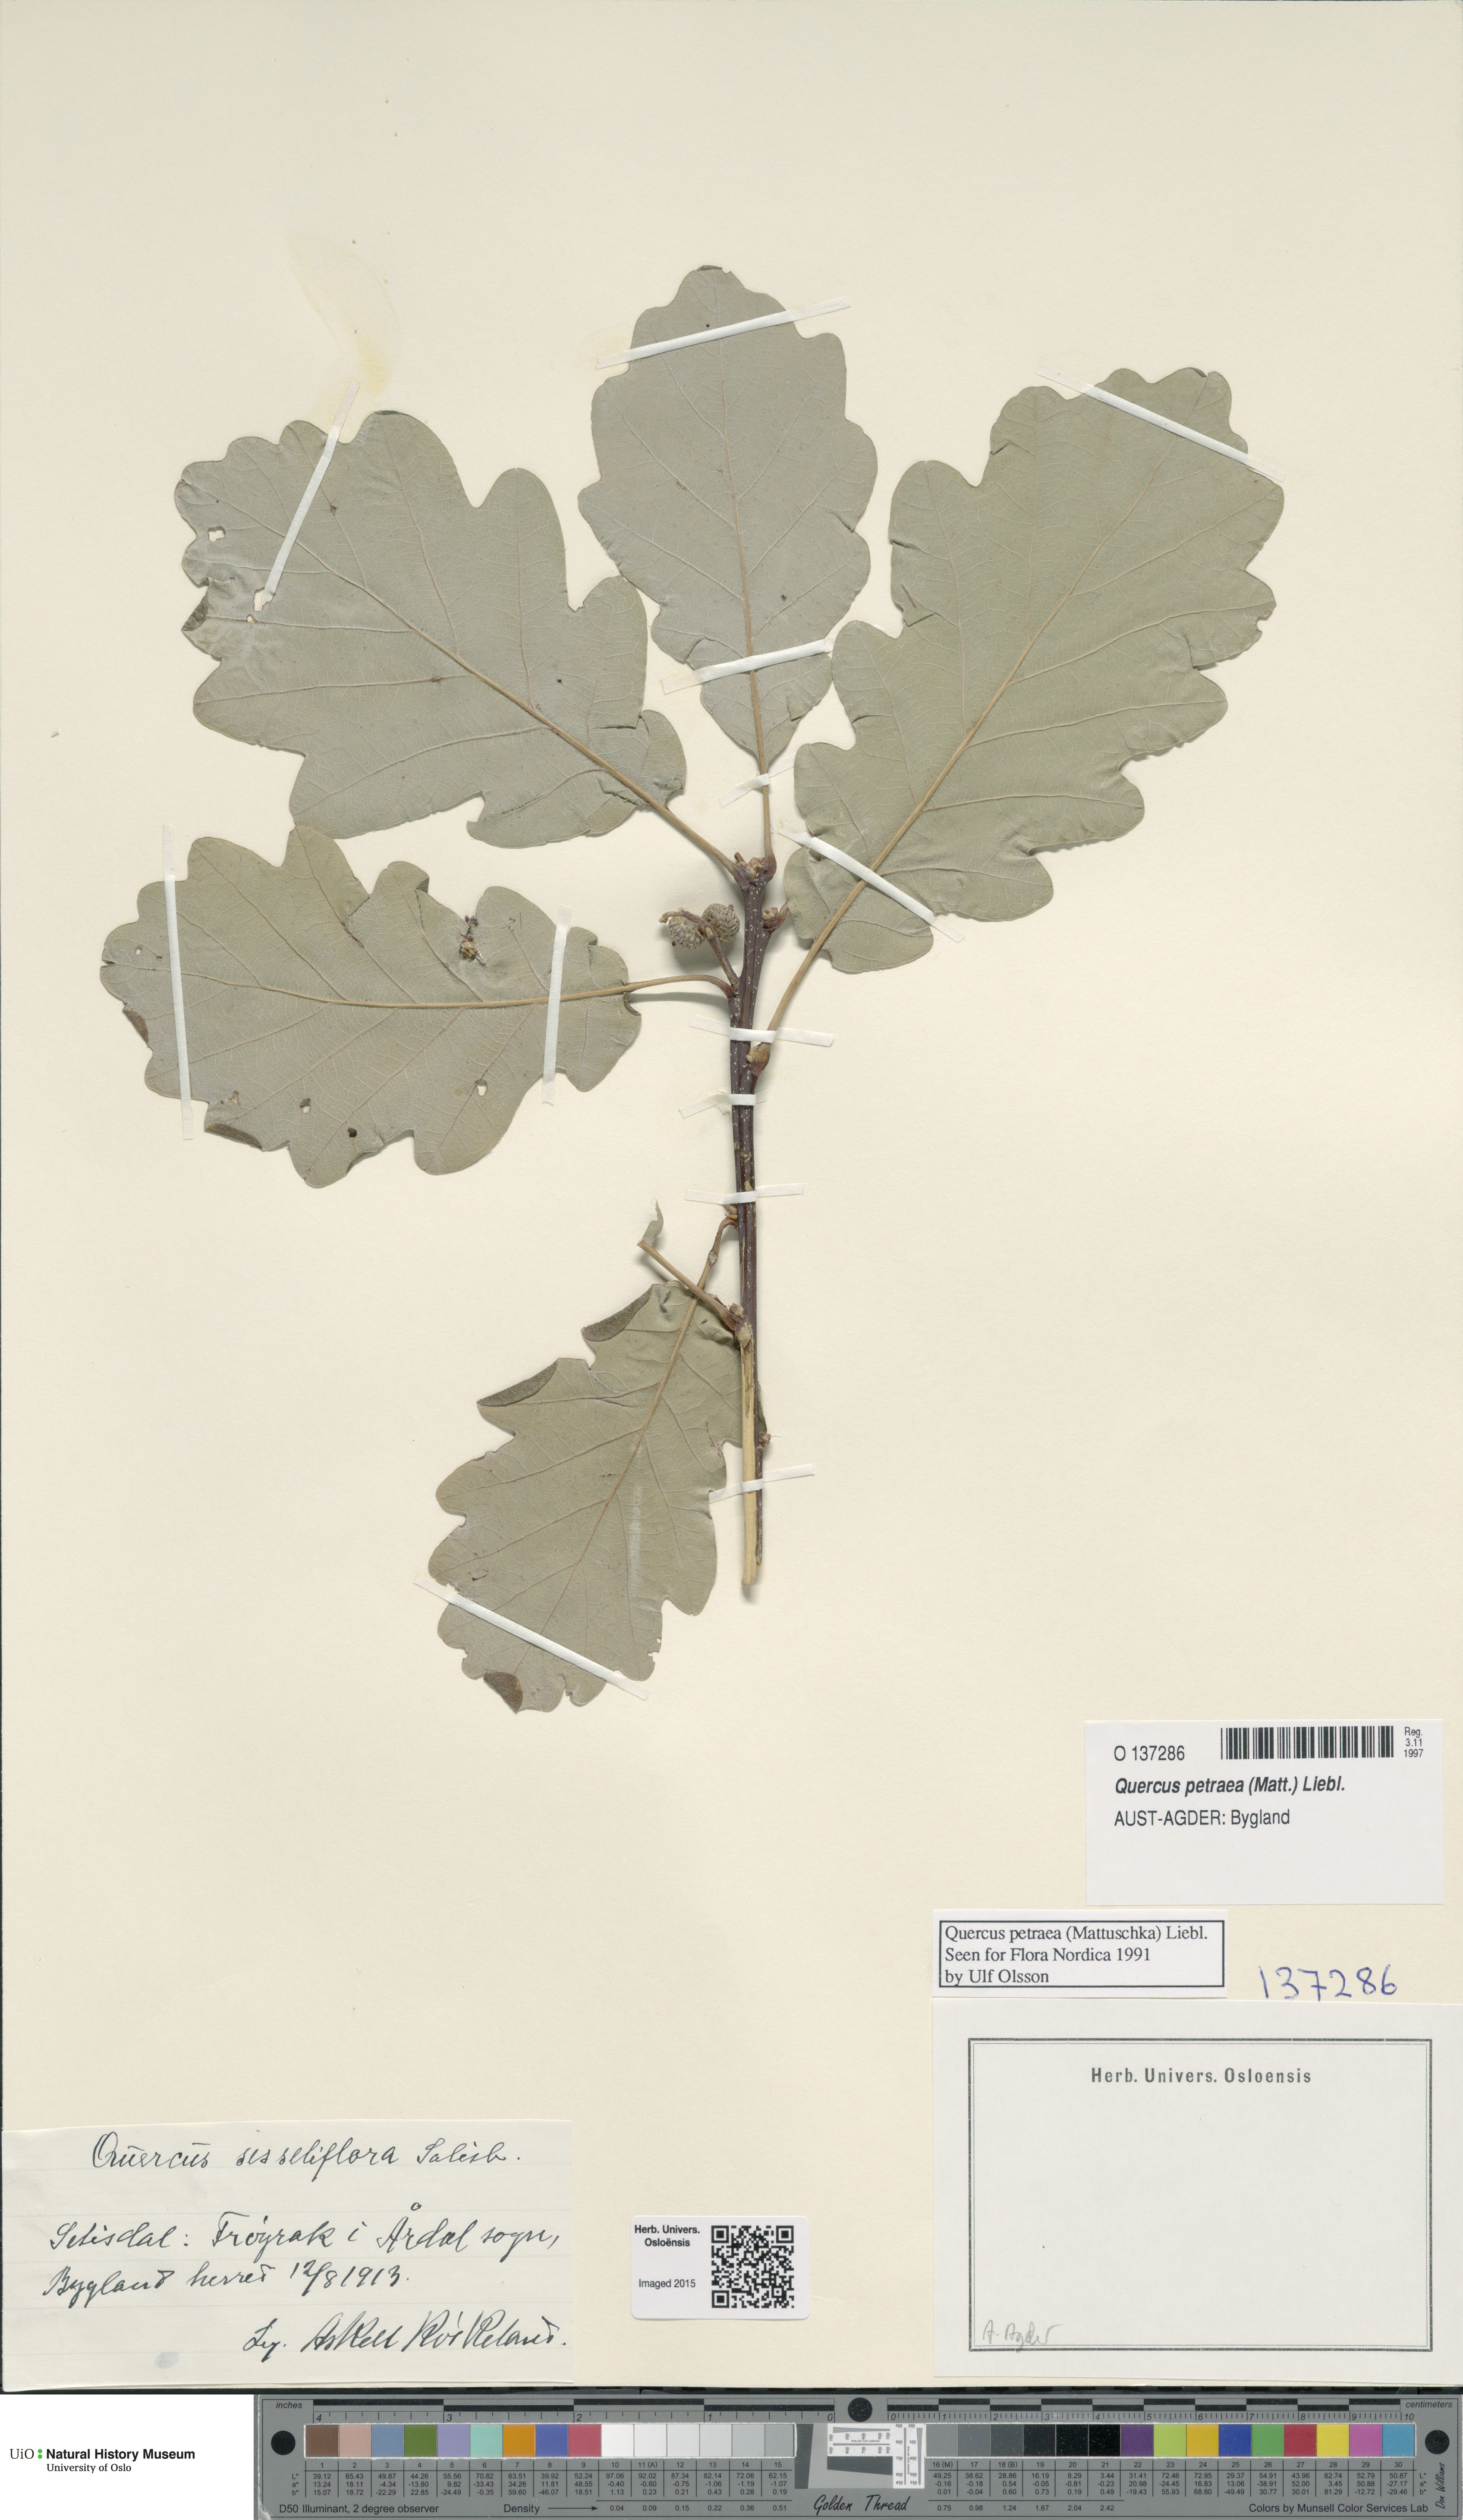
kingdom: Plantae
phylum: Tracheophyta
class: Magnoliopsida
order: Fagales
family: Fagaceae
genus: Quercus
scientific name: Quercus petraea
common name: Sessile oak
